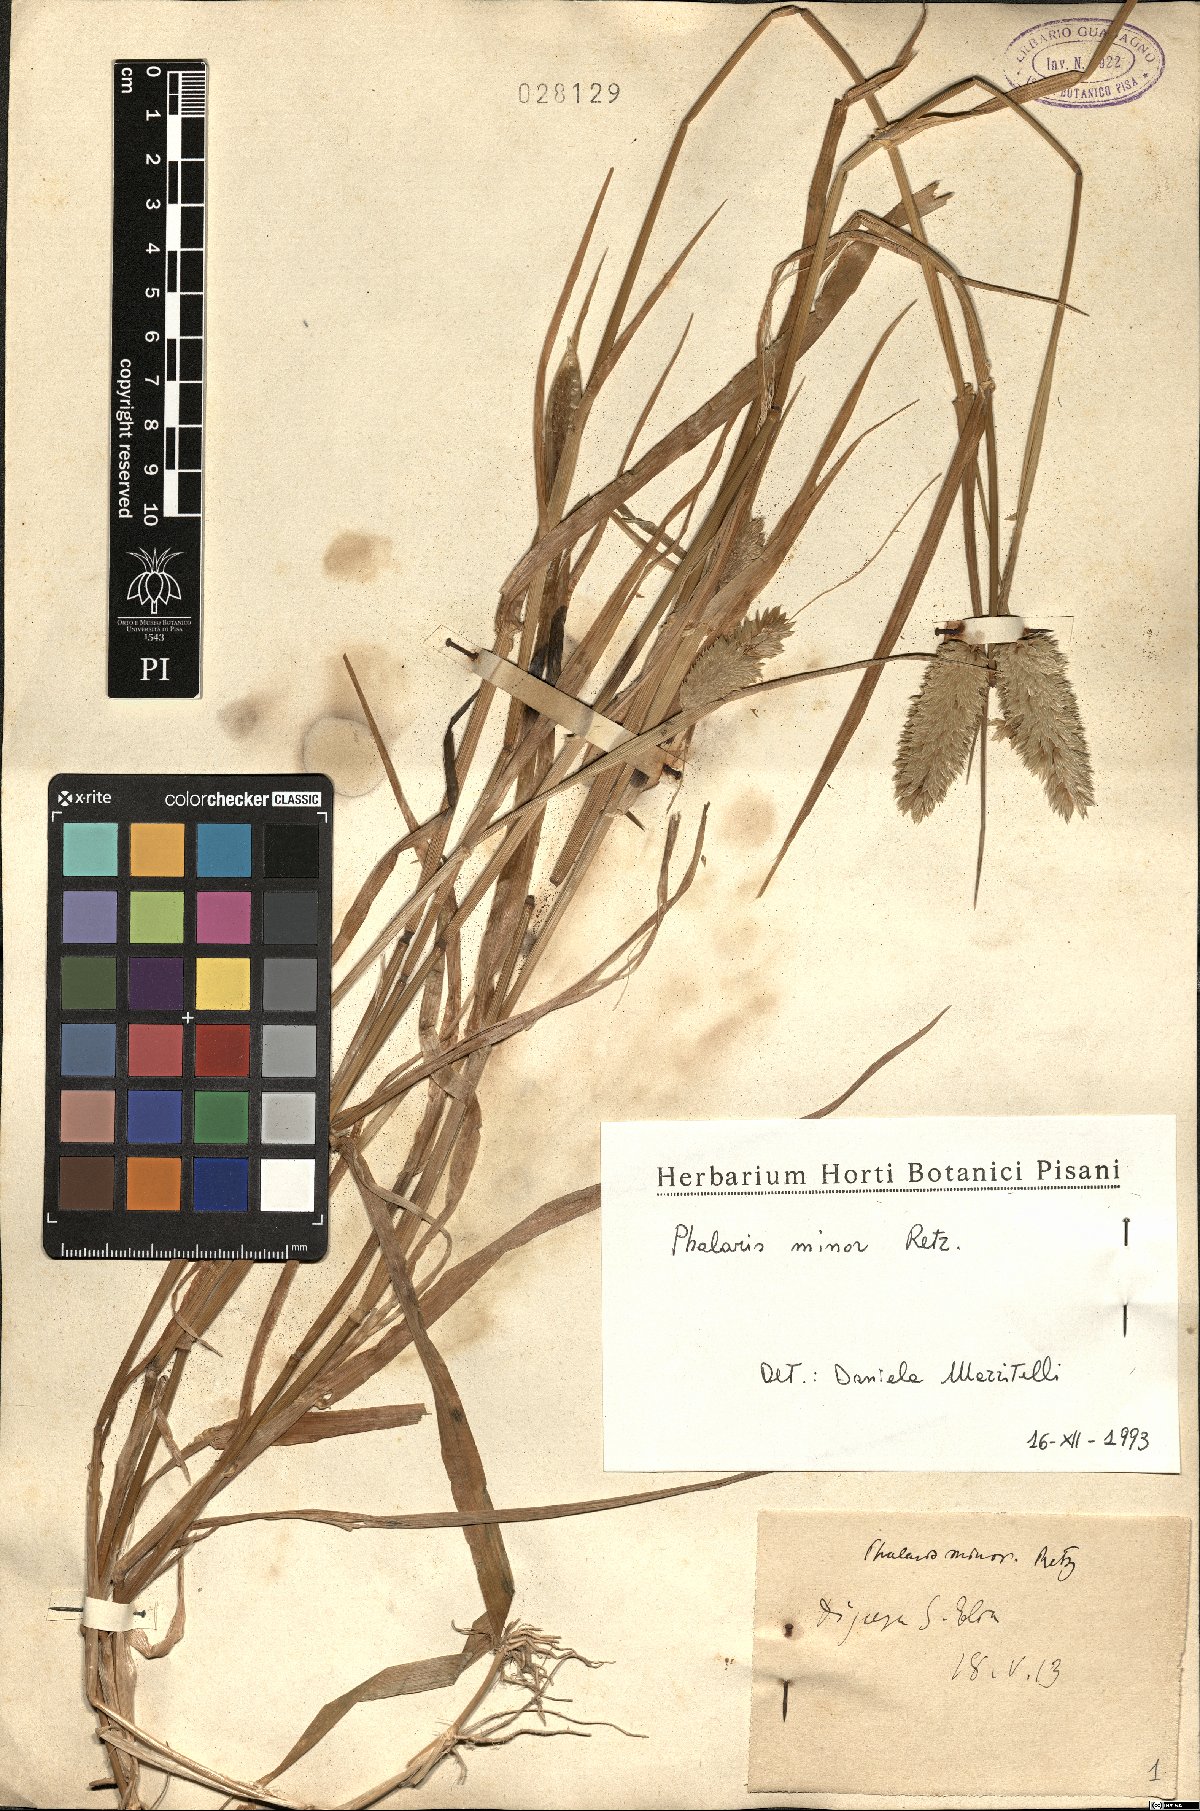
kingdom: Plantae
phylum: Tracheophyta
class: Liliopsida
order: Poales
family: Poaceae
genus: Phalaris
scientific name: Phalaris minor
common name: Littleseed canarygrass
